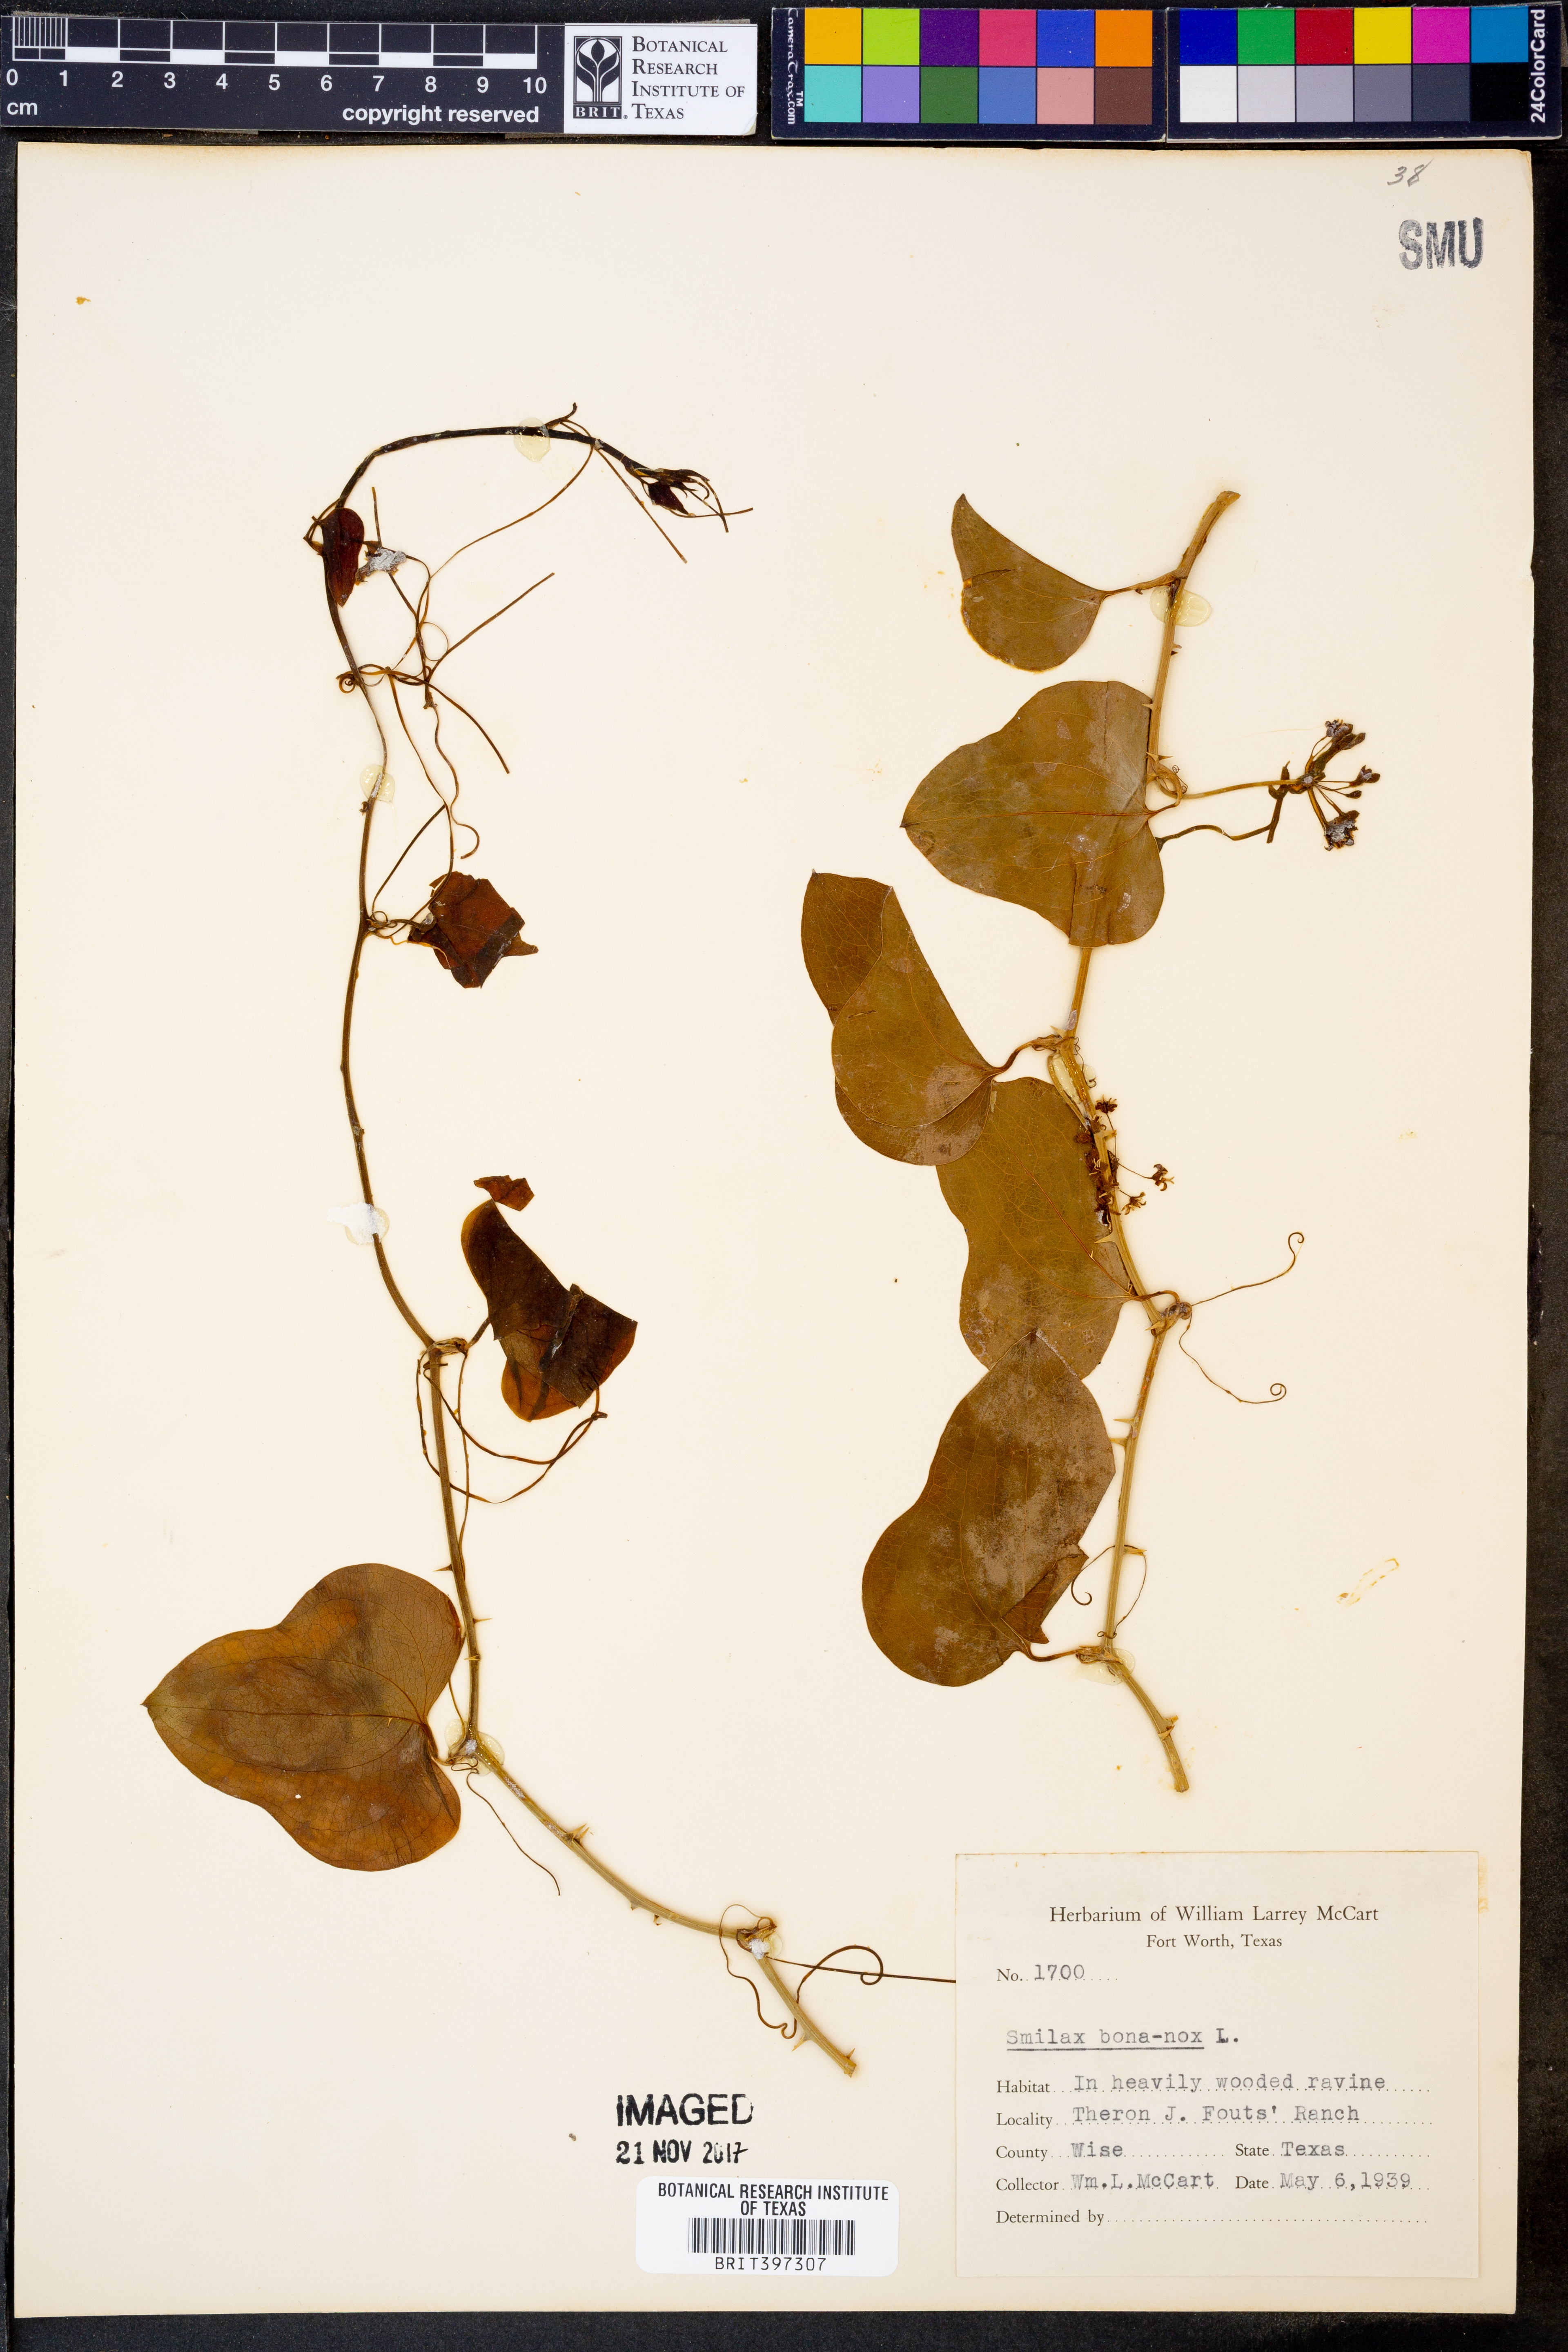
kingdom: Plantae
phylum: Tracheophyta
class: Liliopsida
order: Liliales
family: Smilacaceae
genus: Smilax
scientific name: Smilax bona-nox
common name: Catbrier
